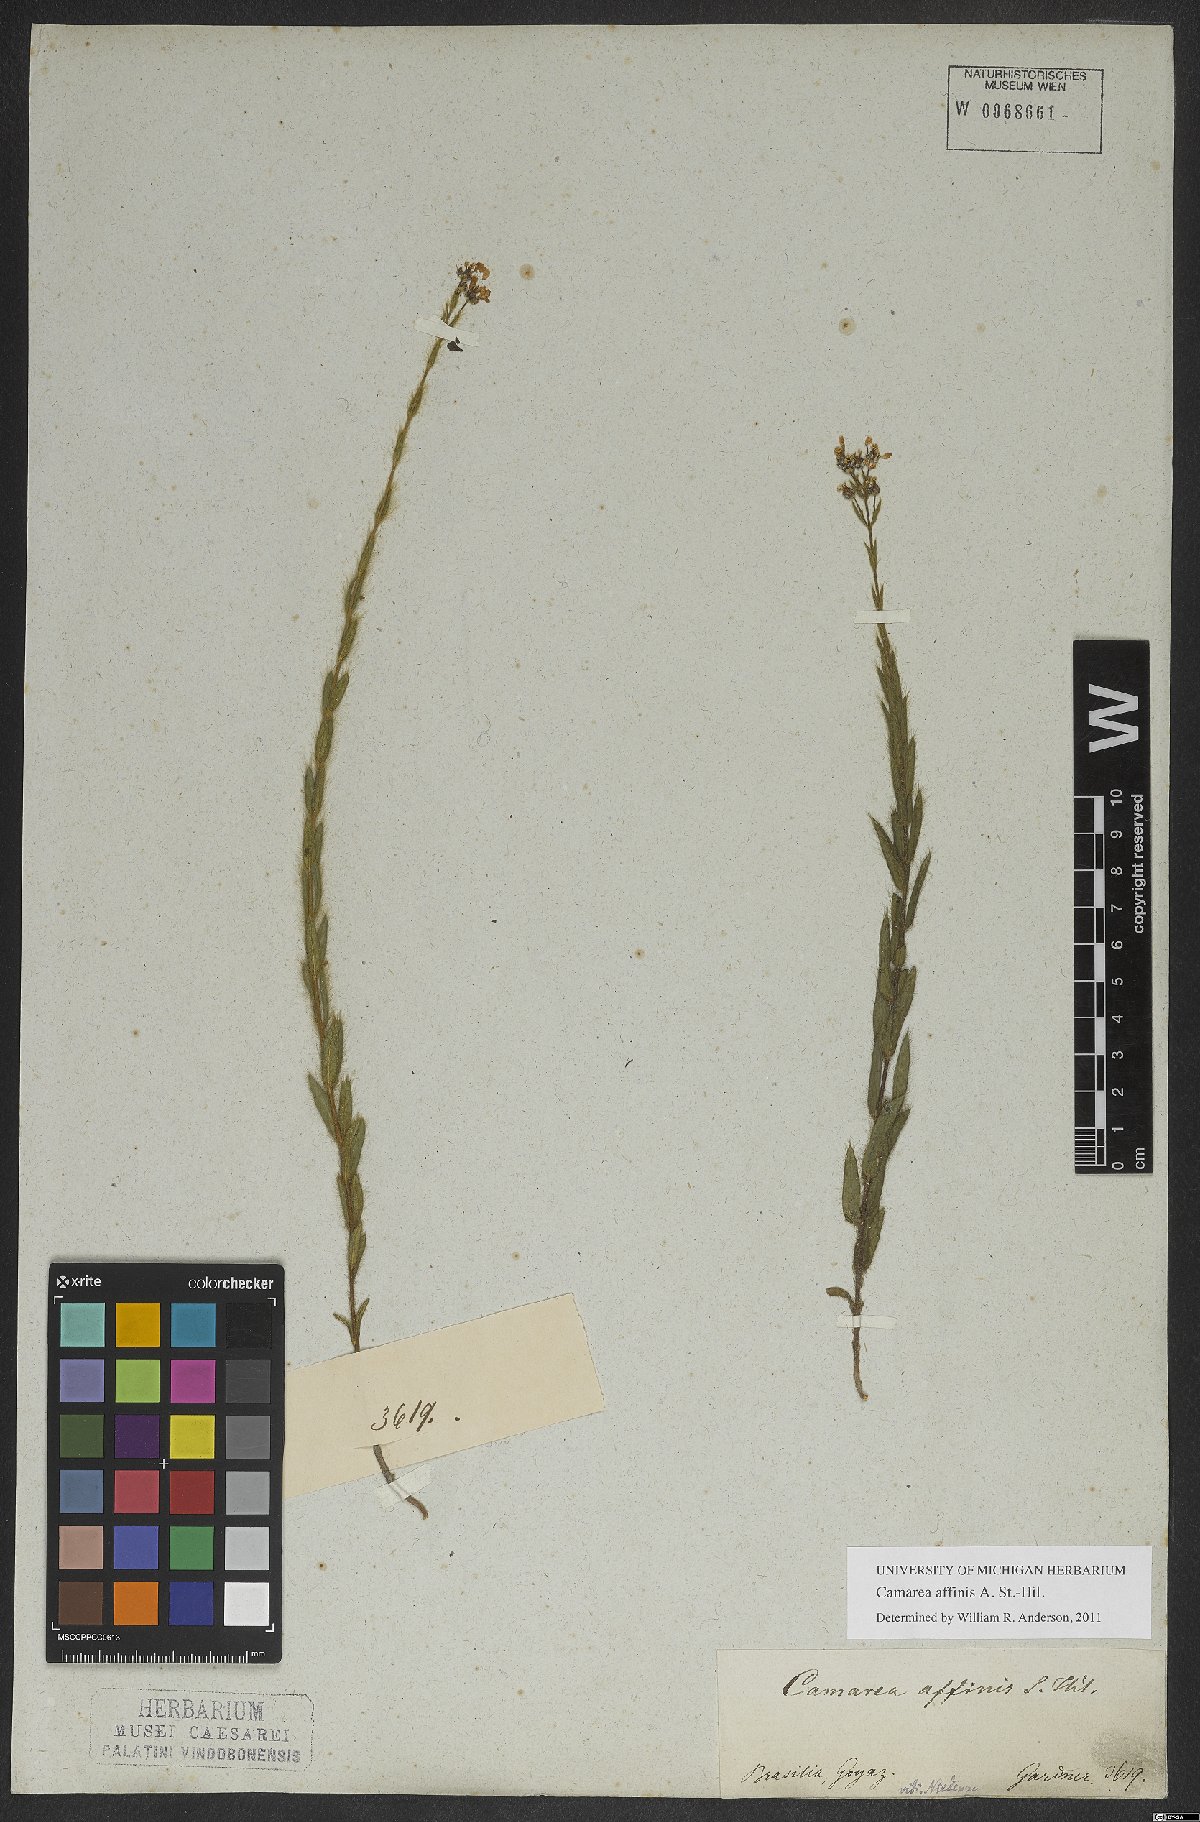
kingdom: Plantae
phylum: Tracheophyta
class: Magnoliopsida
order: Malpighiales
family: Malpighiaceae
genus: Camarea
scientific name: Camarea affinis
